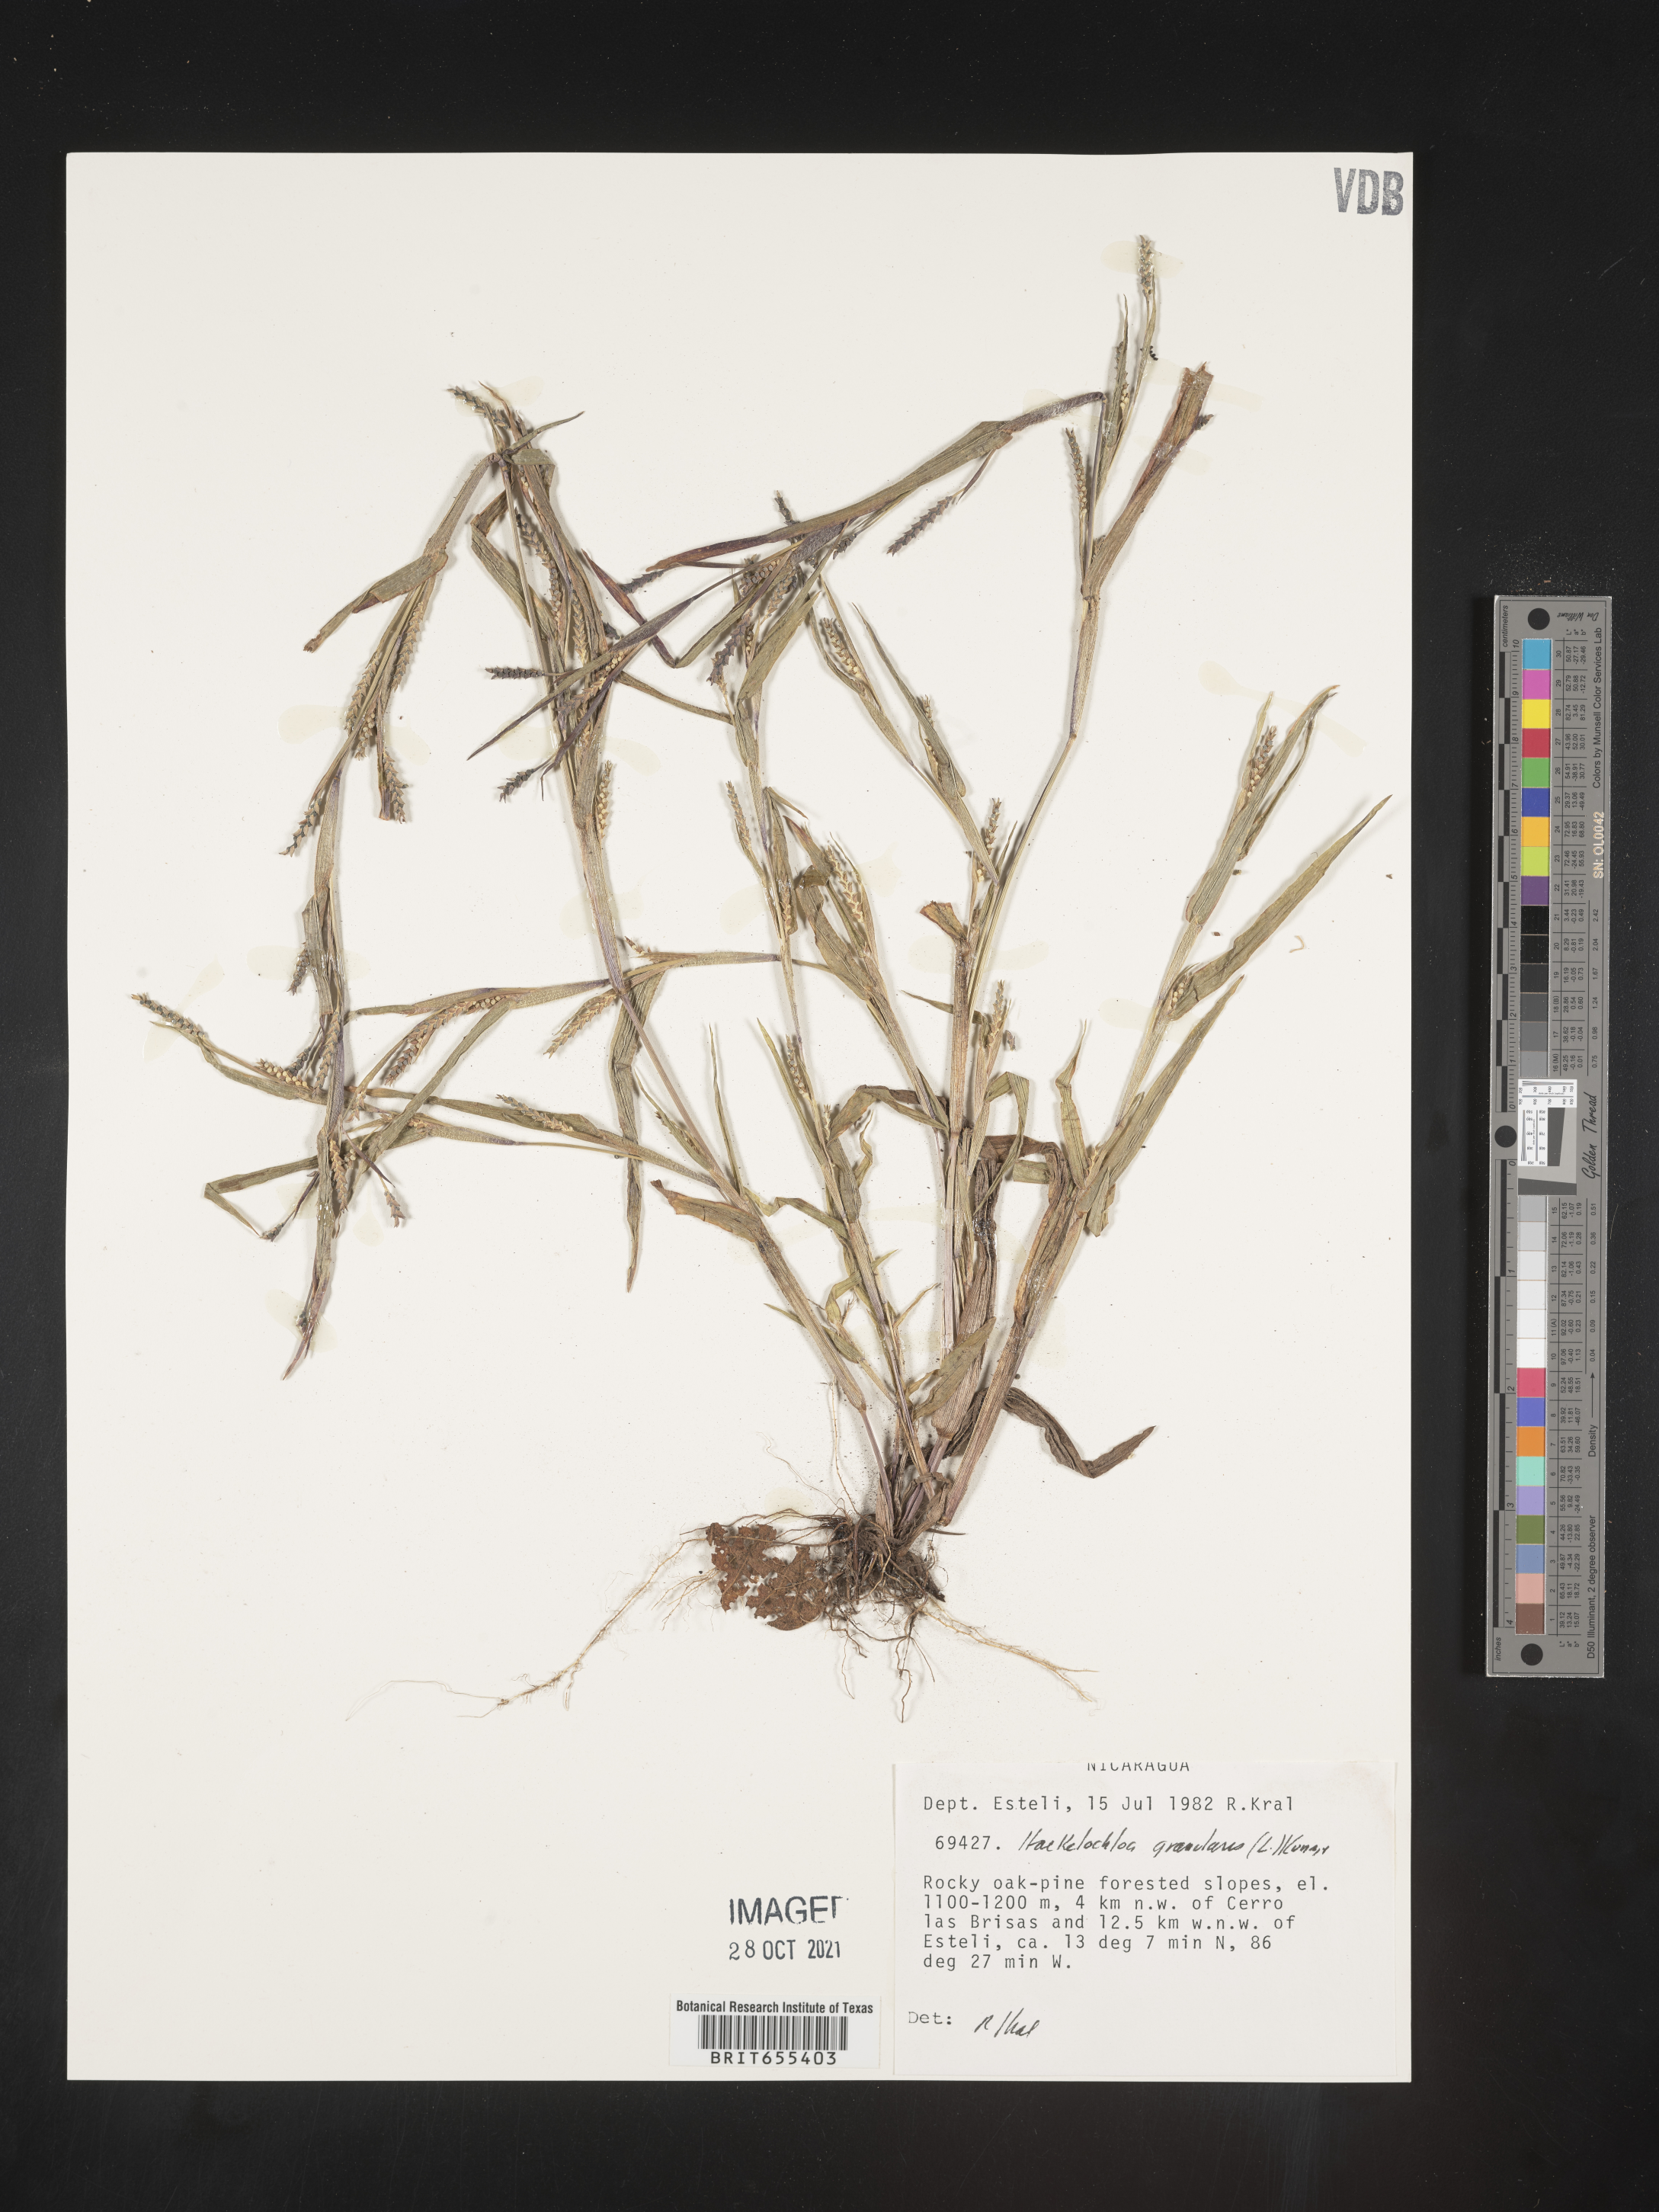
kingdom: Plantae
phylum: Tracheophyta
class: Liliopsida
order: Poales
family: Poaceae
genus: Hackelochloa
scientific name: Hackelochloa
